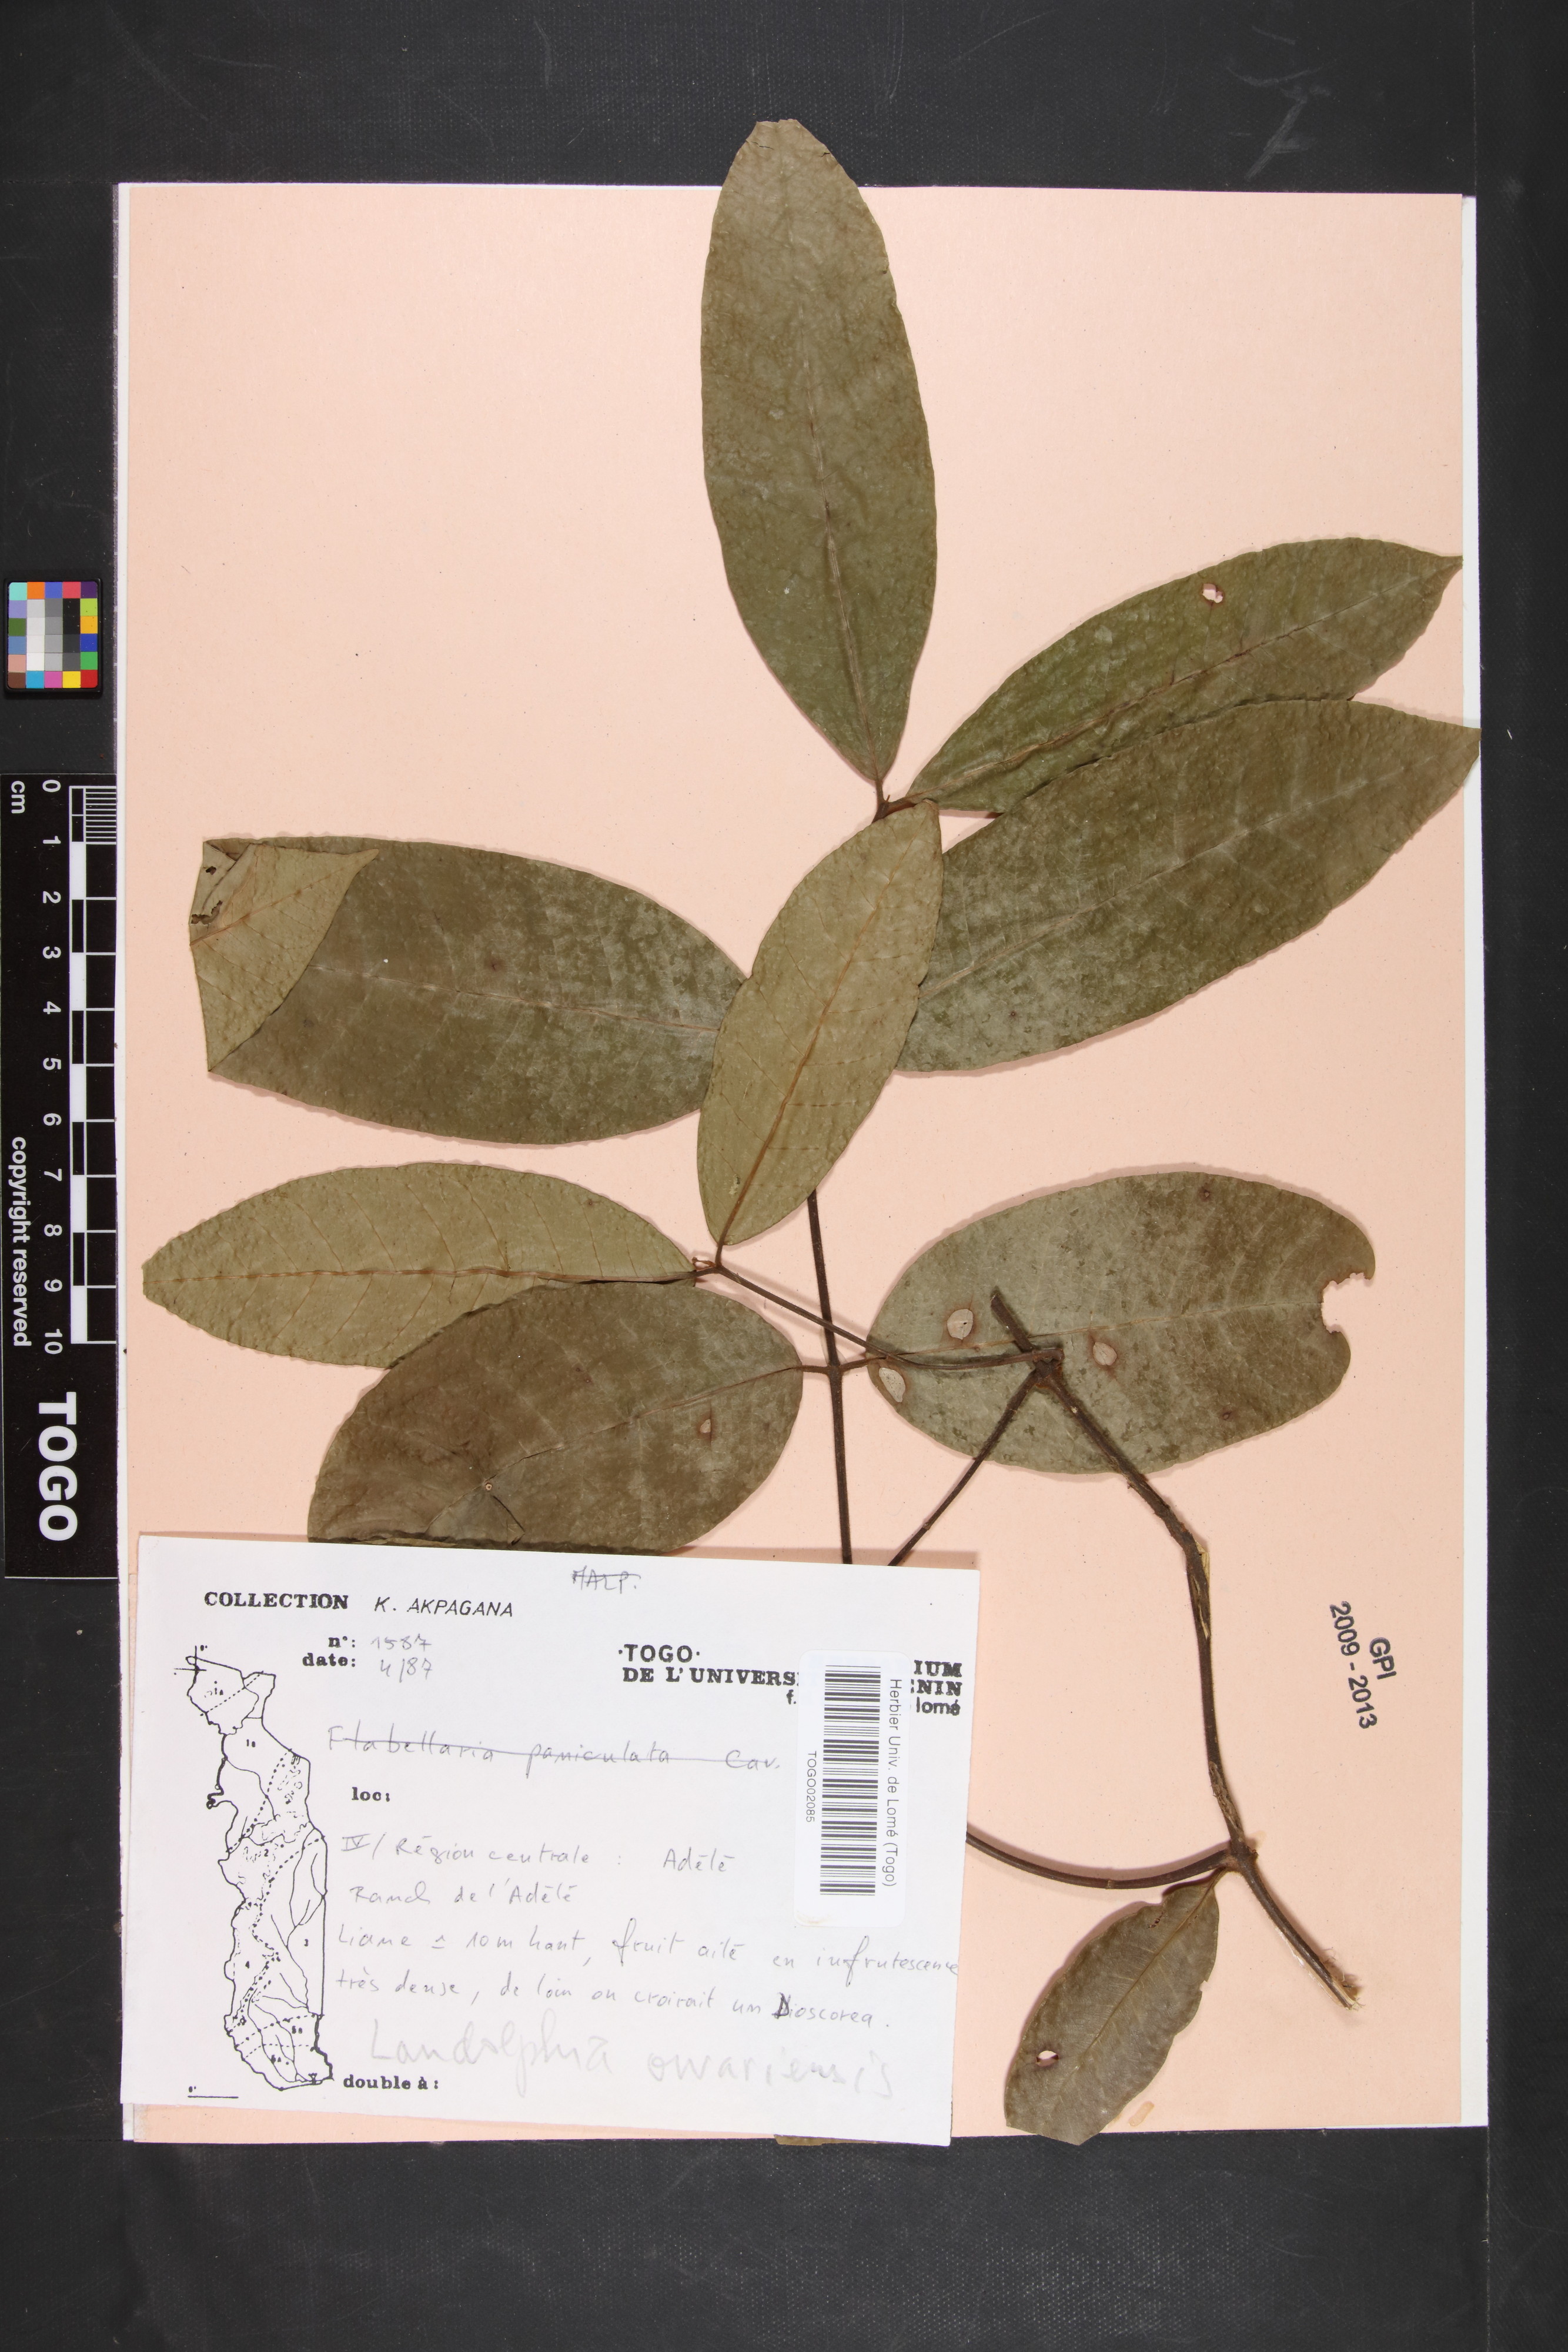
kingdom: Plantae
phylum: Tracheophyta
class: Magnoliopsida
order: Gentianales
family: Apocynaceae
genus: Landolphia
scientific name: Landolphia owariensis
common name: White-ball-rubber
